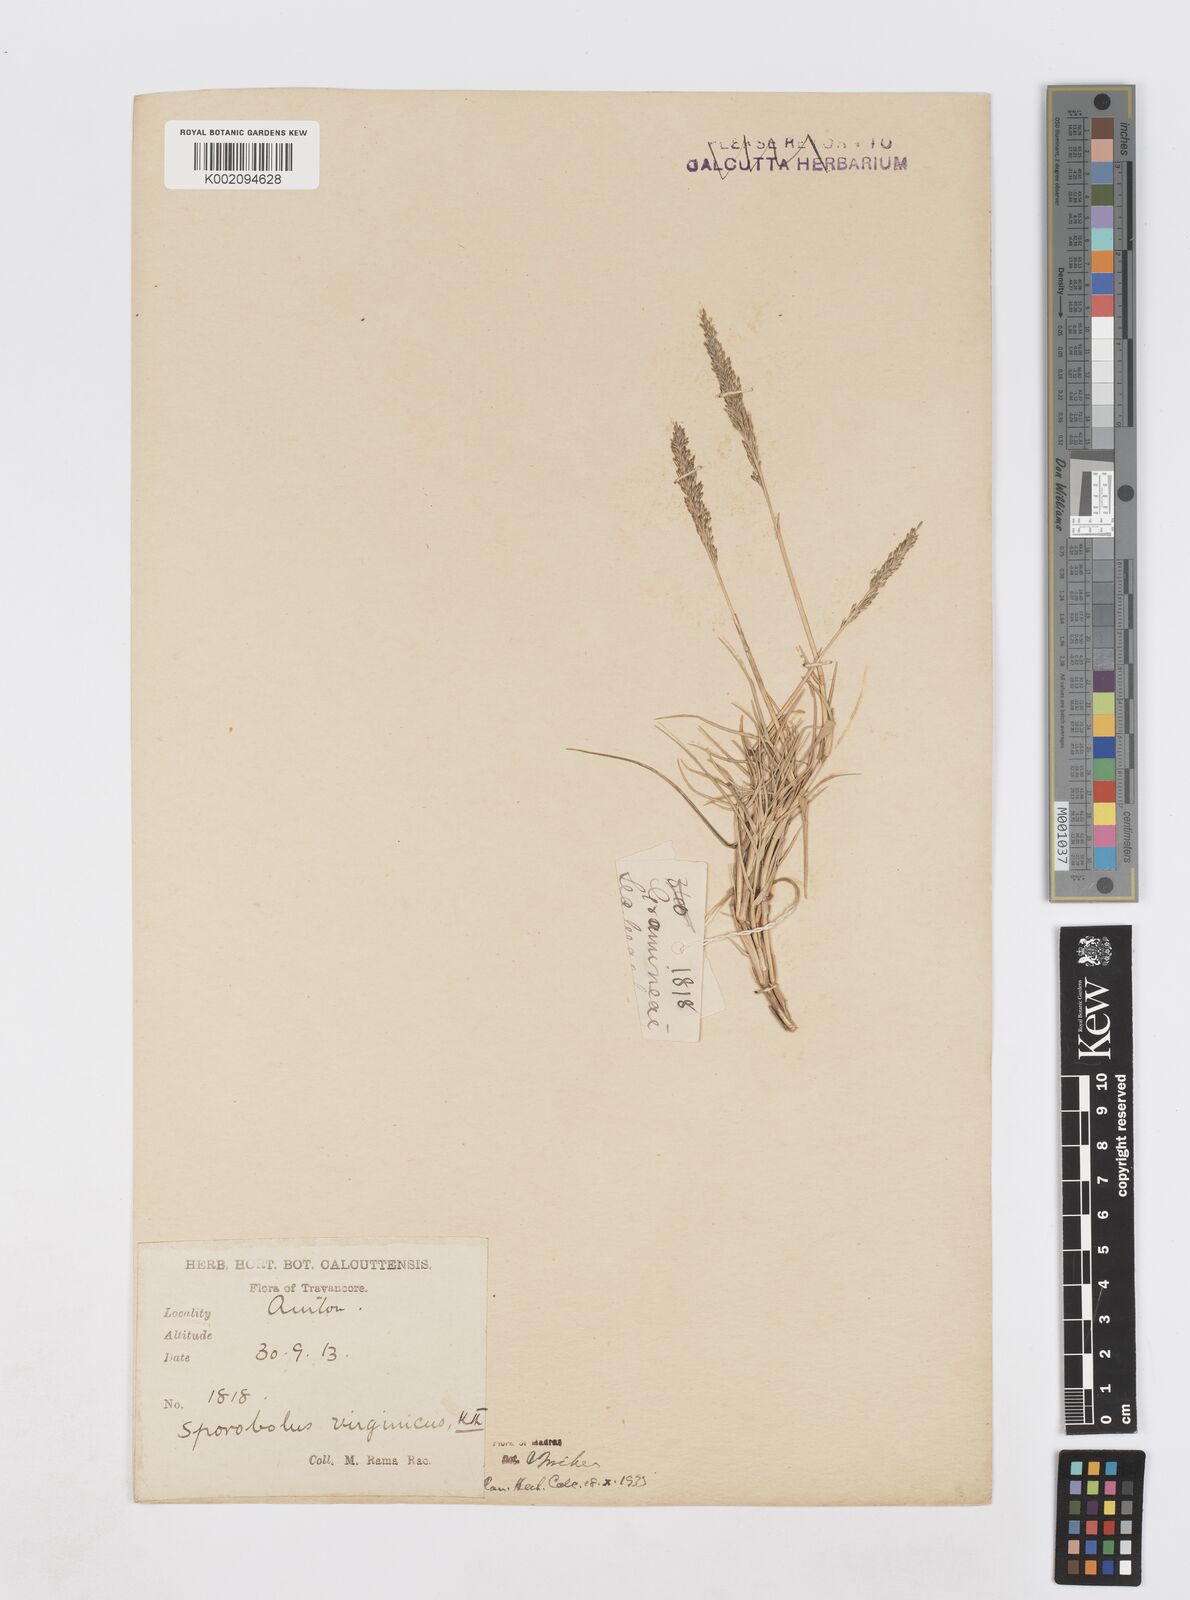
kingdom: Plantae
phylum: Tracheophyta
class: Liliopsida
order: Poales
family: Poaceae
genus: Sporobolus
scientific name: Sporobolus virginicus
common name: Beach dropseed
